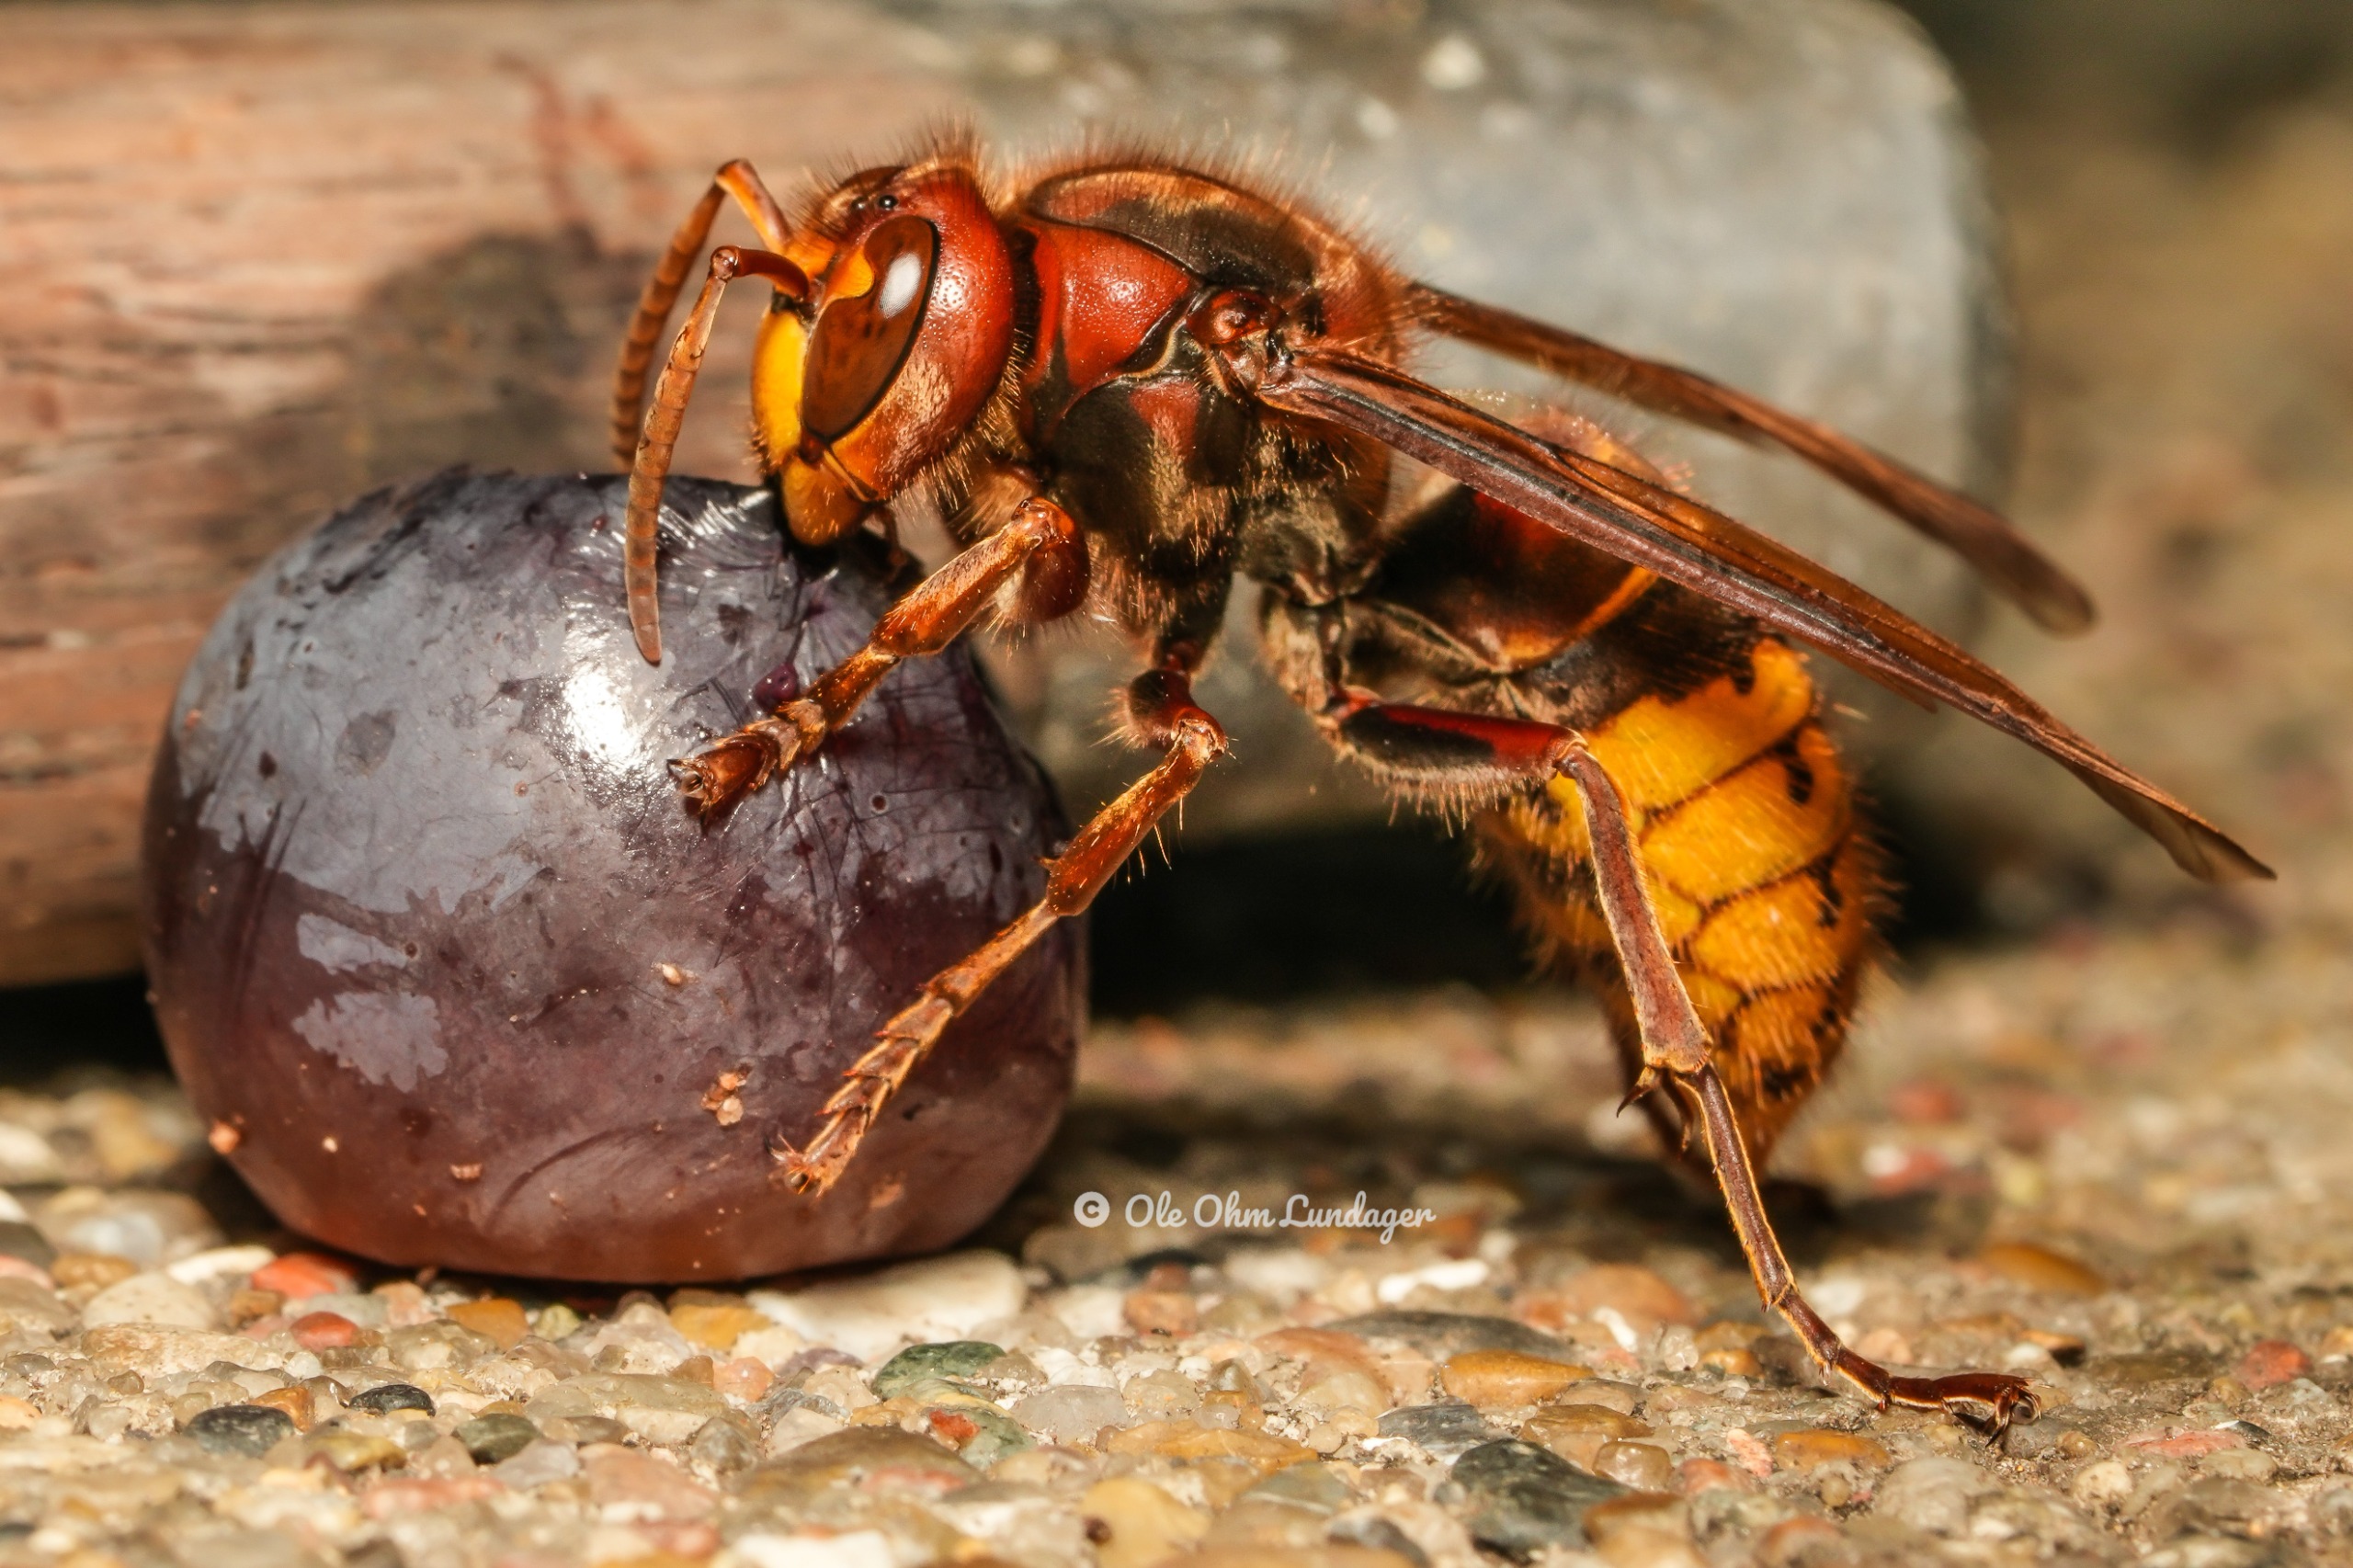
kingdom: Animalia
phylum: Arthropoda
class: Insecta
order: Hymenoptera
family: Vespidae
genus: Vespa
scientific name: Vespa crabro
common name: Stor gedehams
